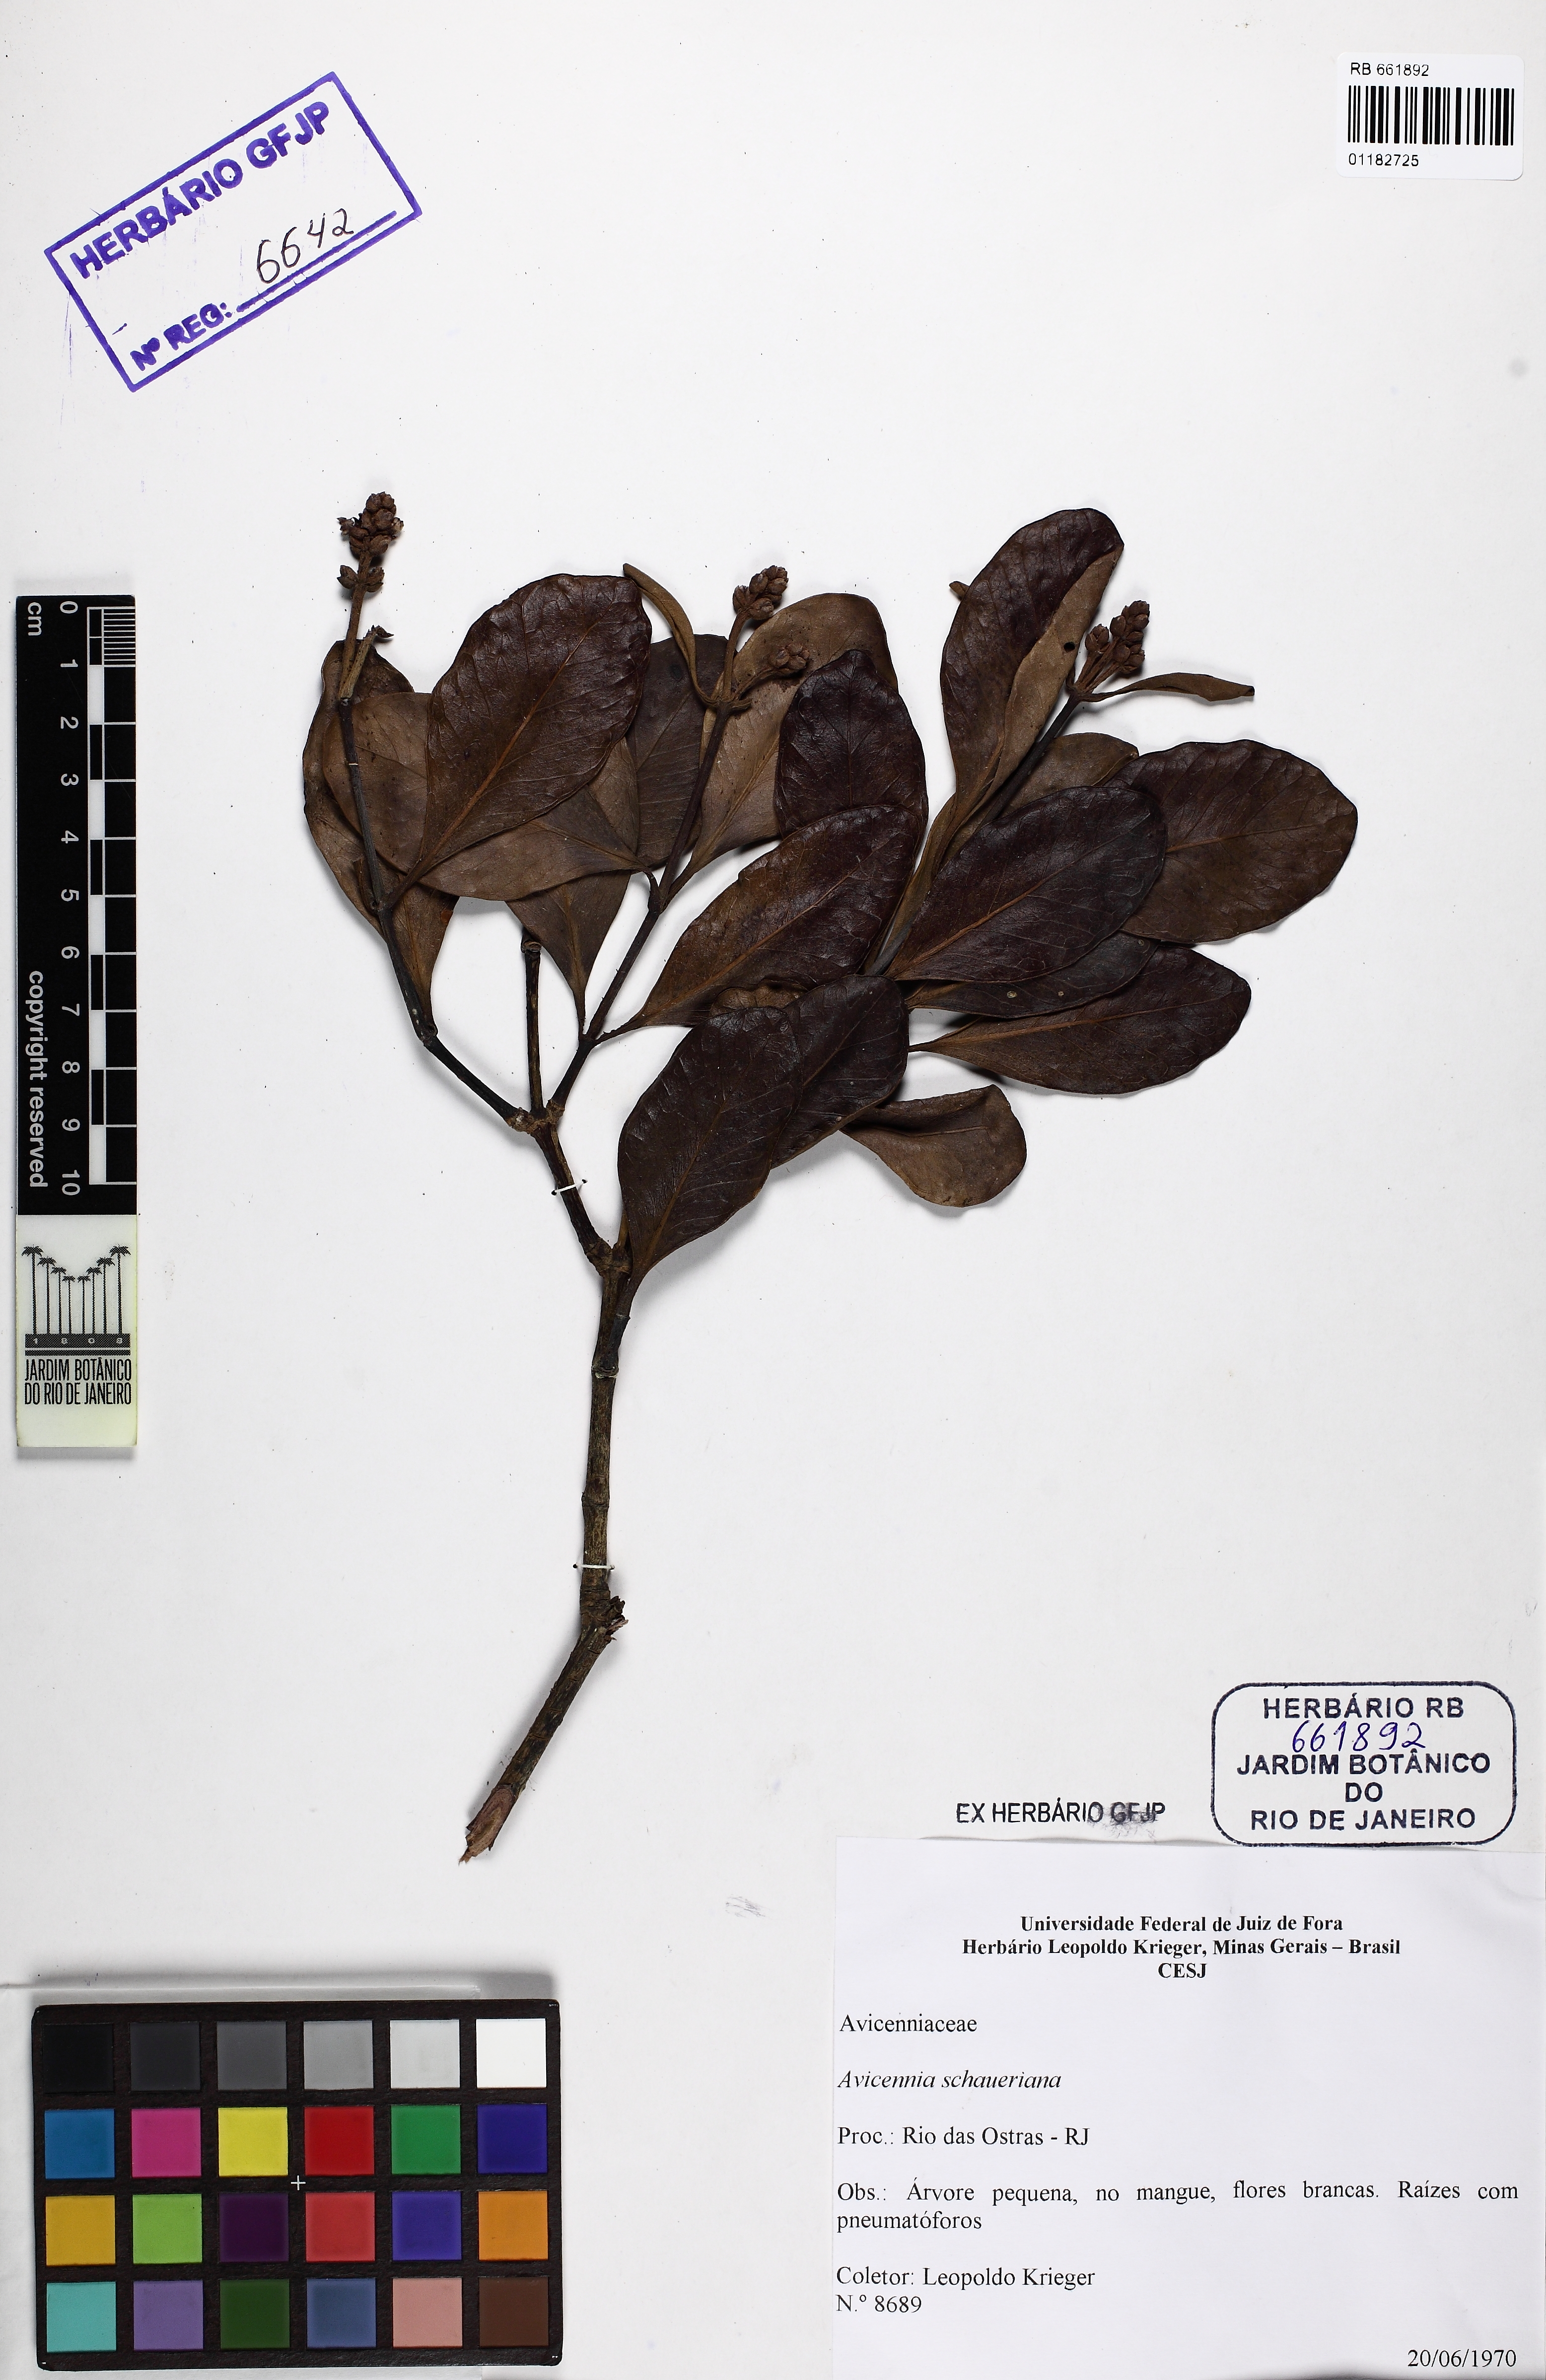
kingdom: Plantae
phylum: Tracheophyta
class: Magnoliopsida
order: Lamiales
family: Acanthaceae
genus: Avicennia
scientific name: Avicennia schaueriana
